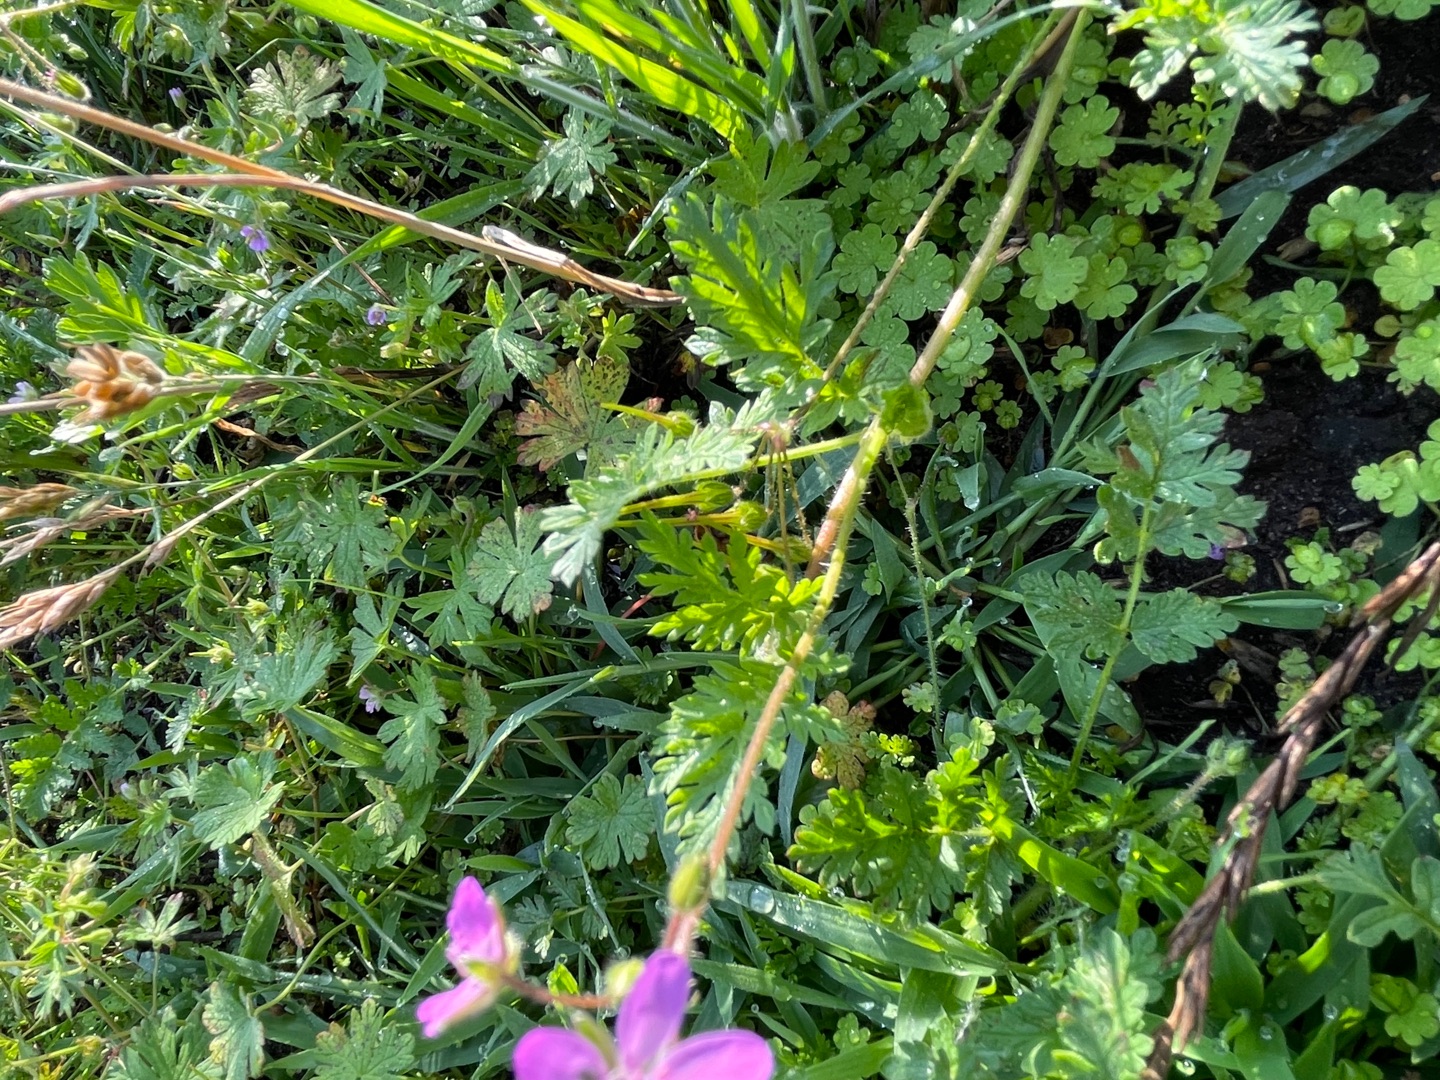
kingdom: Plantae
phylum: Tracheophyta
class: Magnoliopsida
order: Geraniales
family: Geraniaceae
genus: Erodium
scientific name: Erodium cicutarium
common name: Hejrenæb
